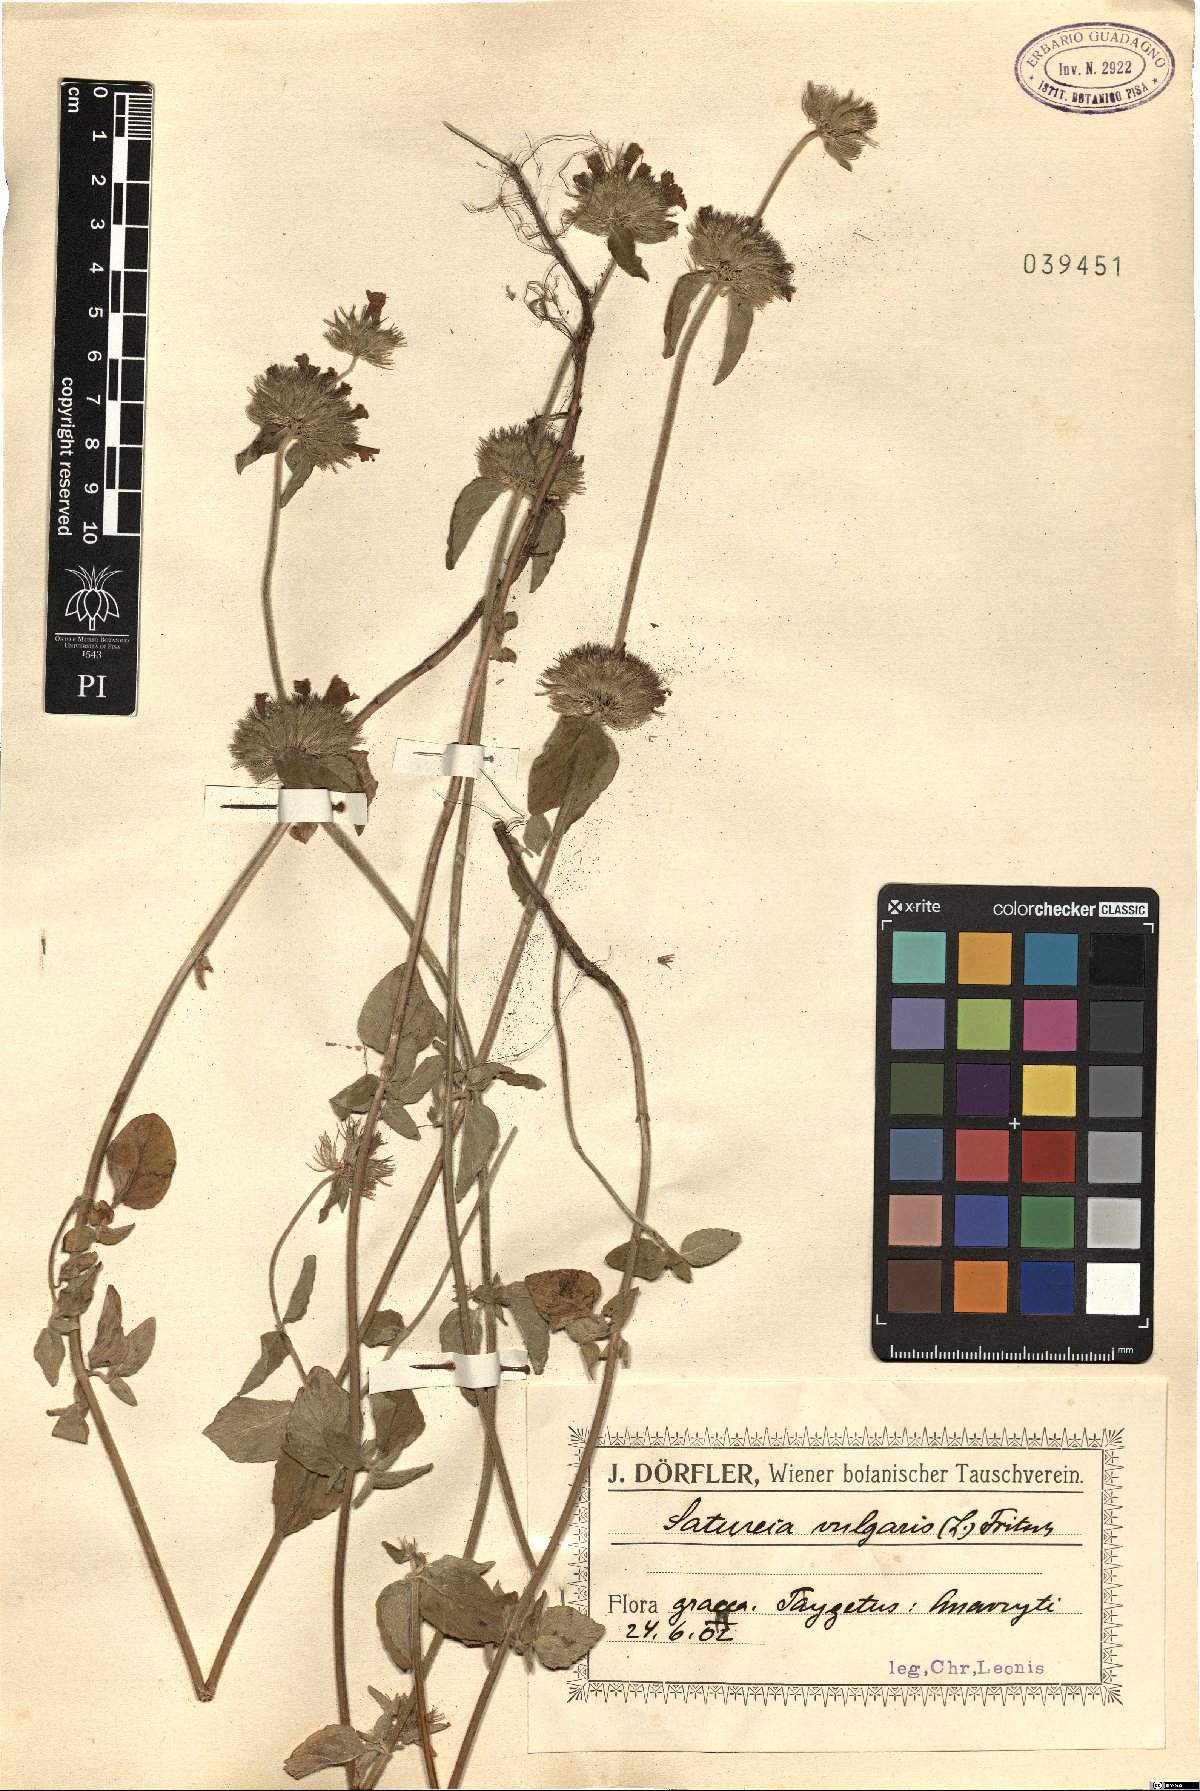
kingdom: Plantae
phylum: Tracheophyta
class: Magnoliopsida
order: Lamiales
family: Lamiaceae
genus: Clinopodium
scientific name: Clinopodium vulgare
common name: Wild basil
